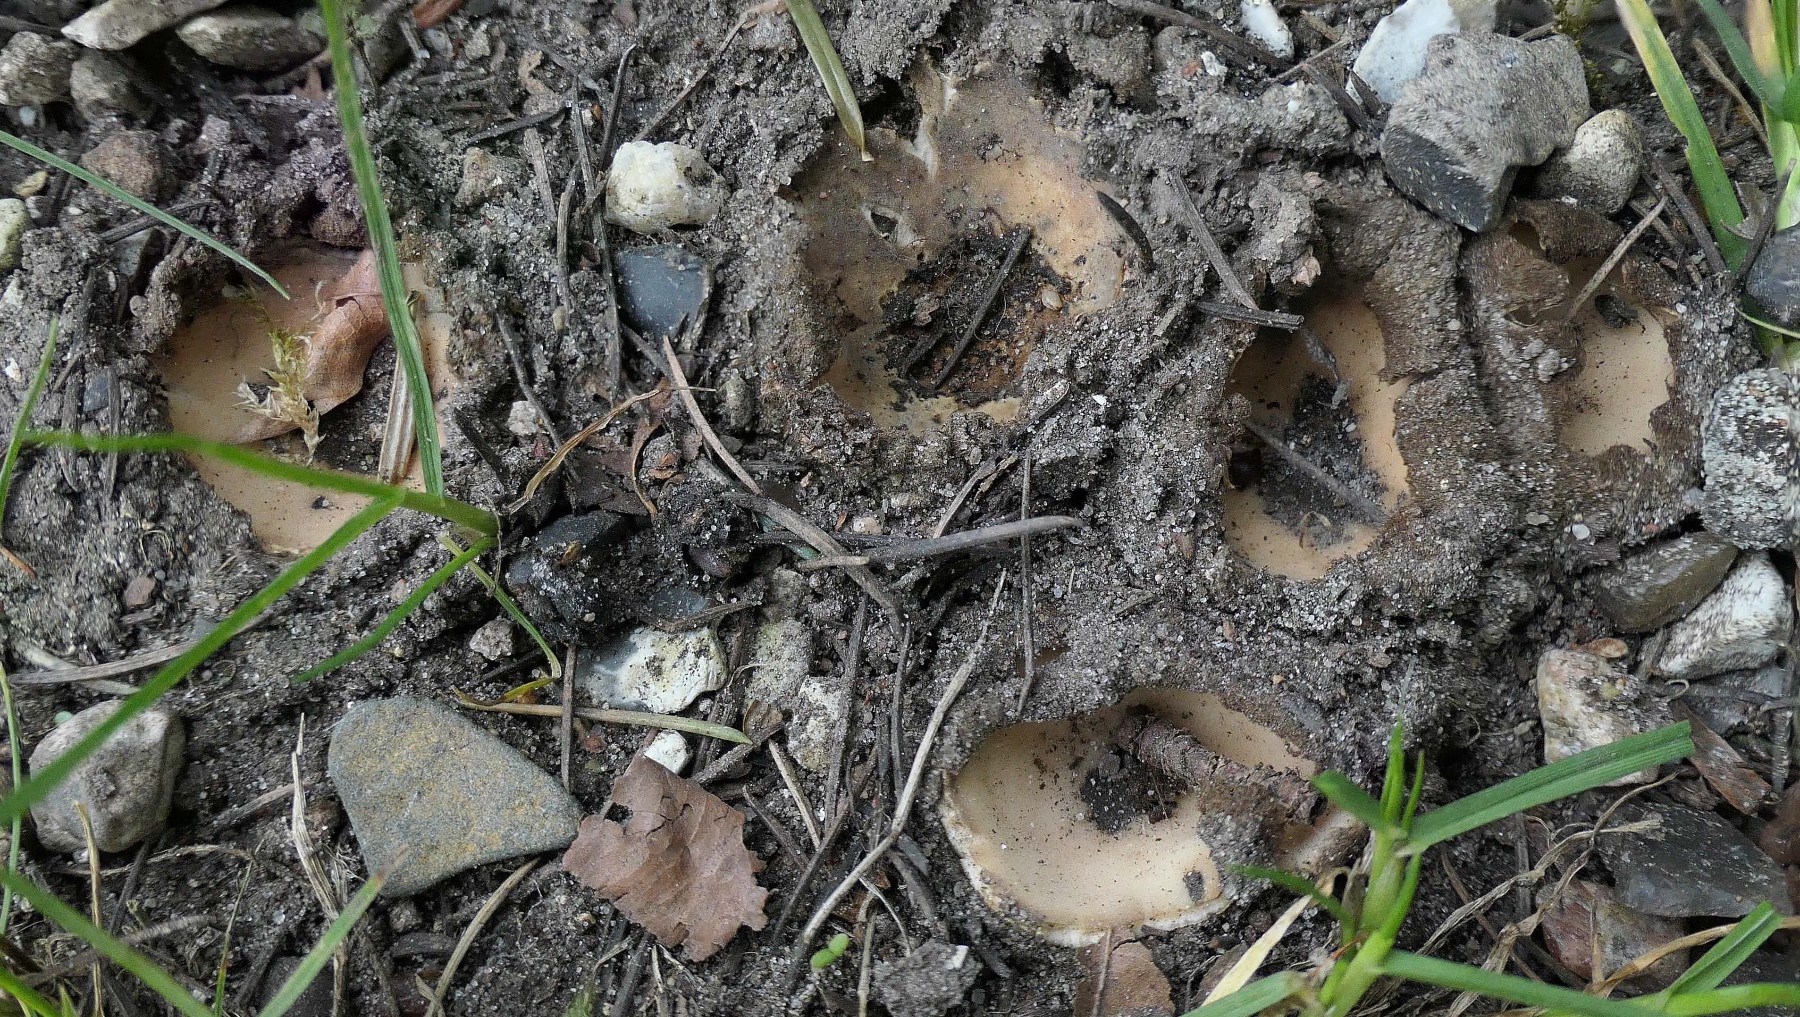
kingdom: Fungi
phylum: Ascomycota
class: Pezizomycetes
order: Pezizales
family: Pyronemataceae
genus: Geopora
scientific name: Geopora sumneriana
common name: vår-jordbæger
